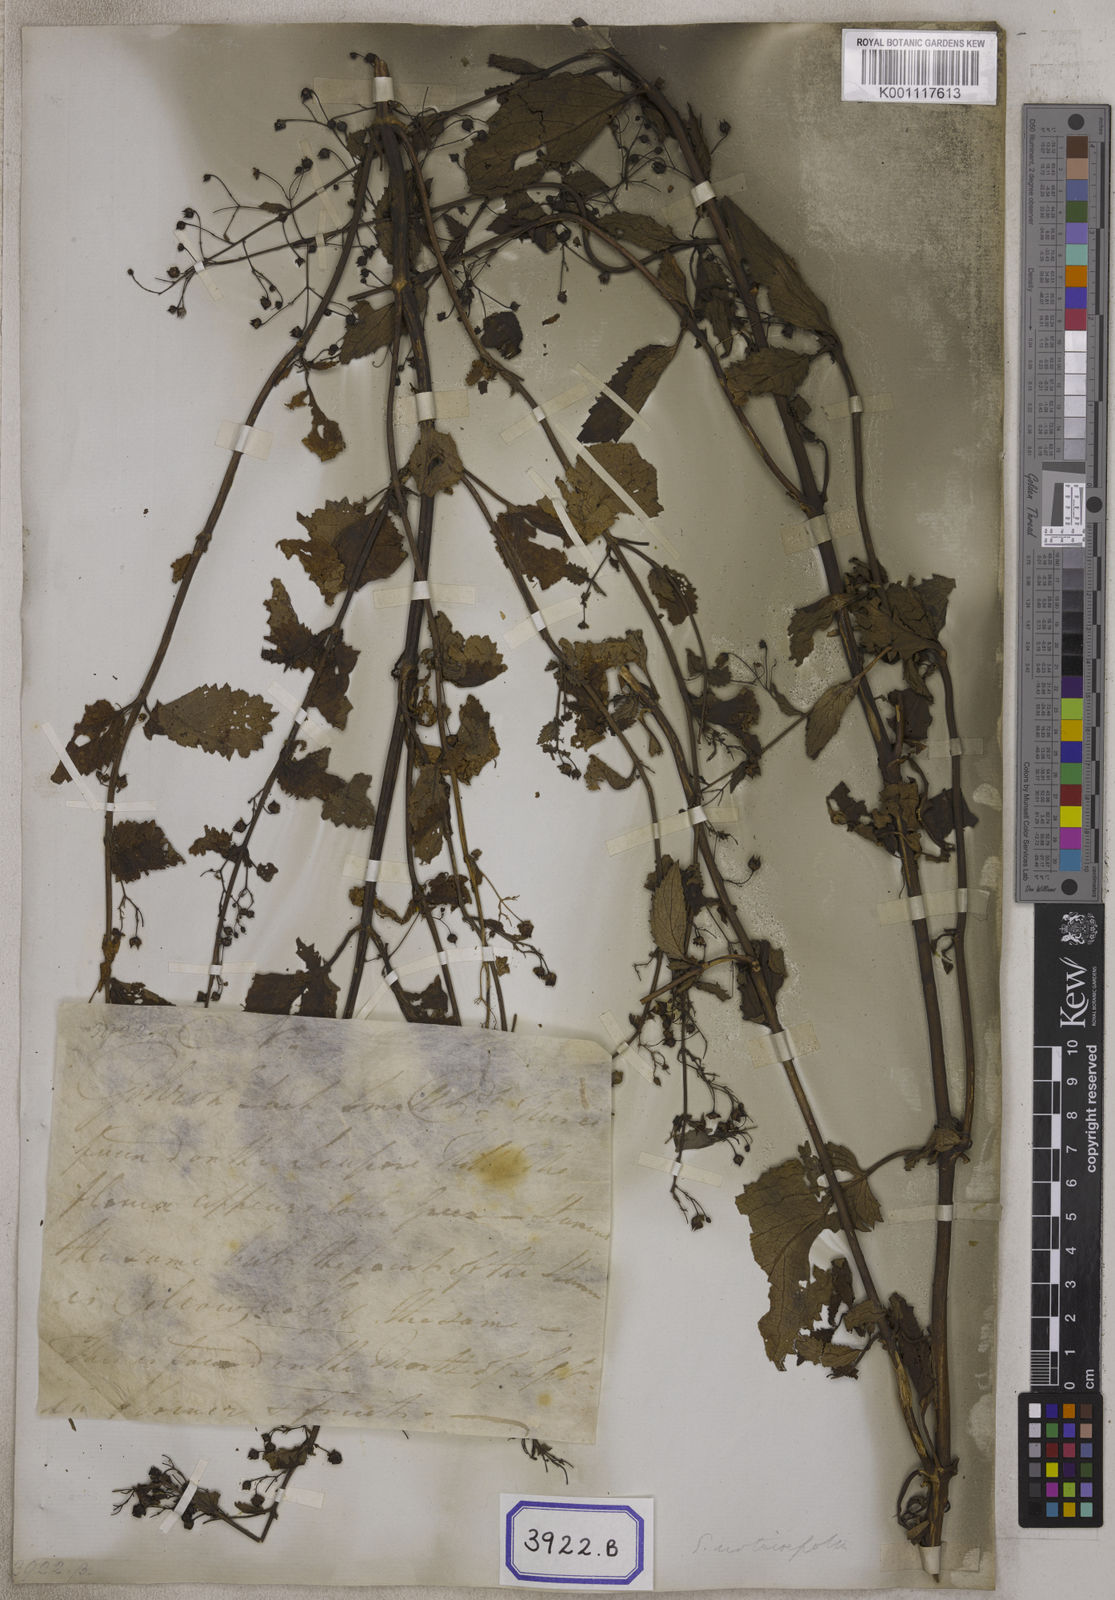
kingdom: Plantae
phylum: Tracheophyta
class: Magnoliopsida
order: Lamiales
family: Scrophulariaceae
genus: Scrophularia
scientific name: Scrophularia
